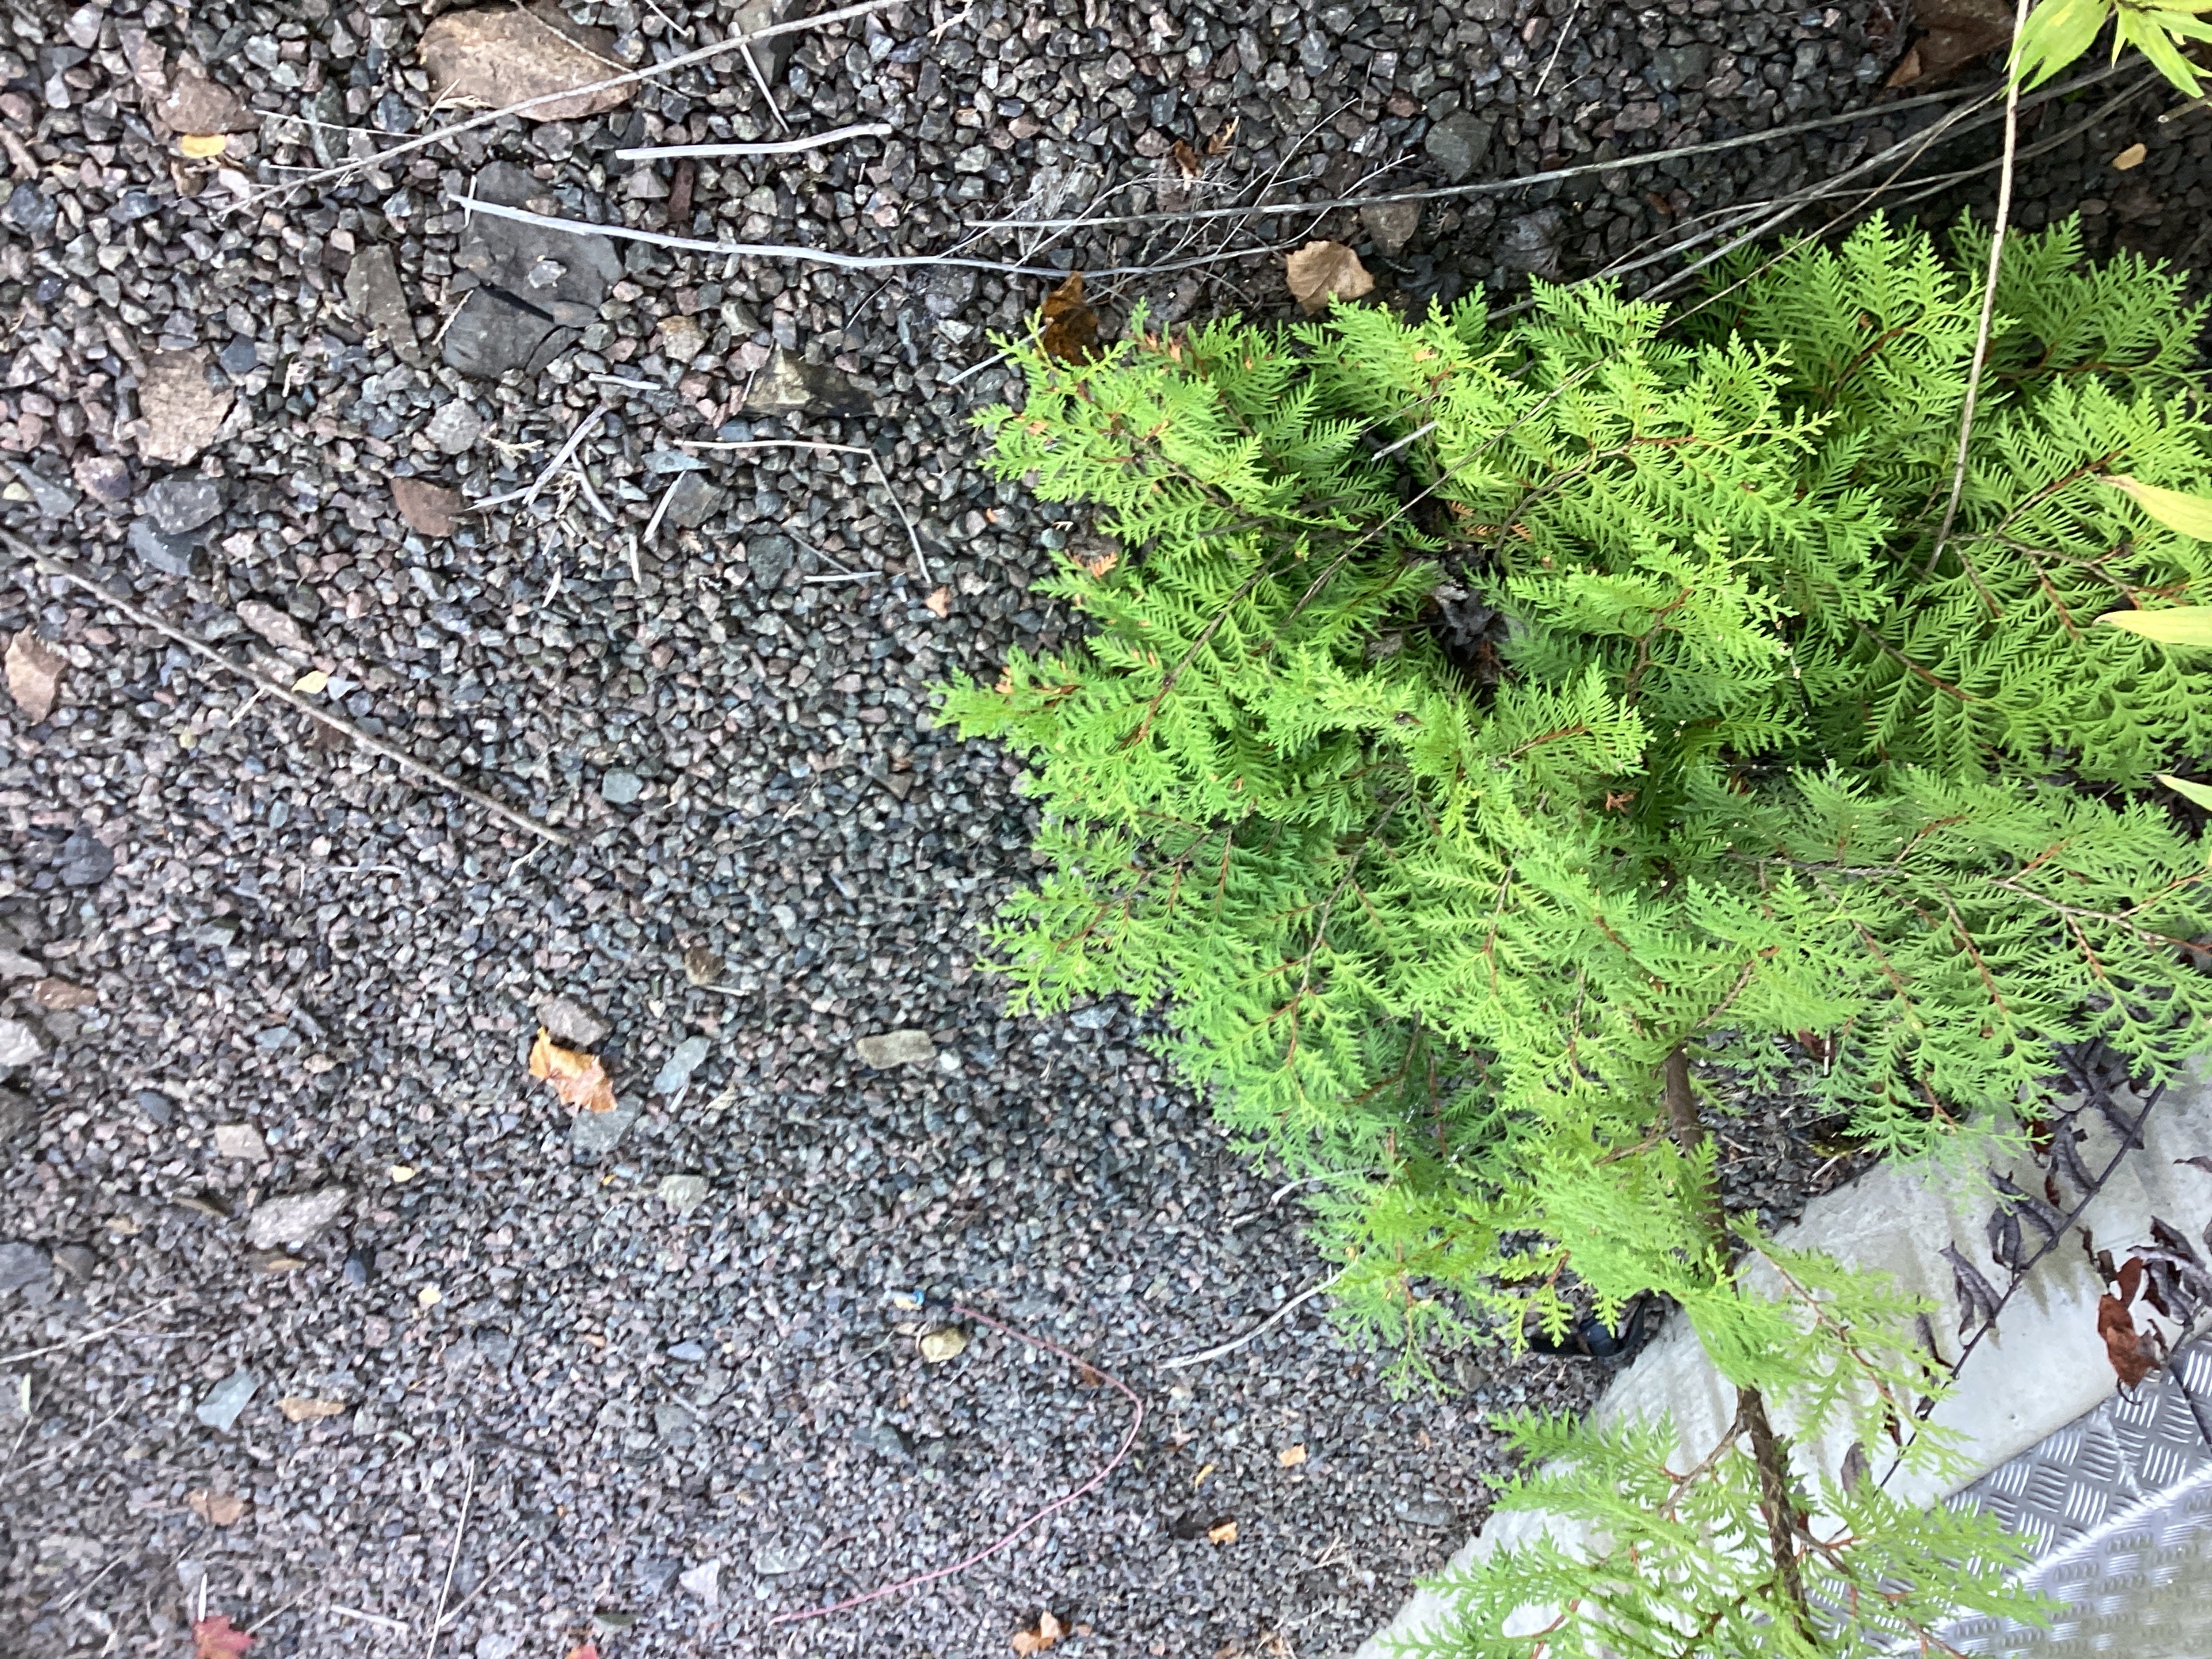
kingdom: Plantae
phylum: Tracheophyta
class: Pinopsida
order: Pinales
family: Cupressaceae
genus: Thuja
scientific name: Thuja occidentalis
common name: tuja
